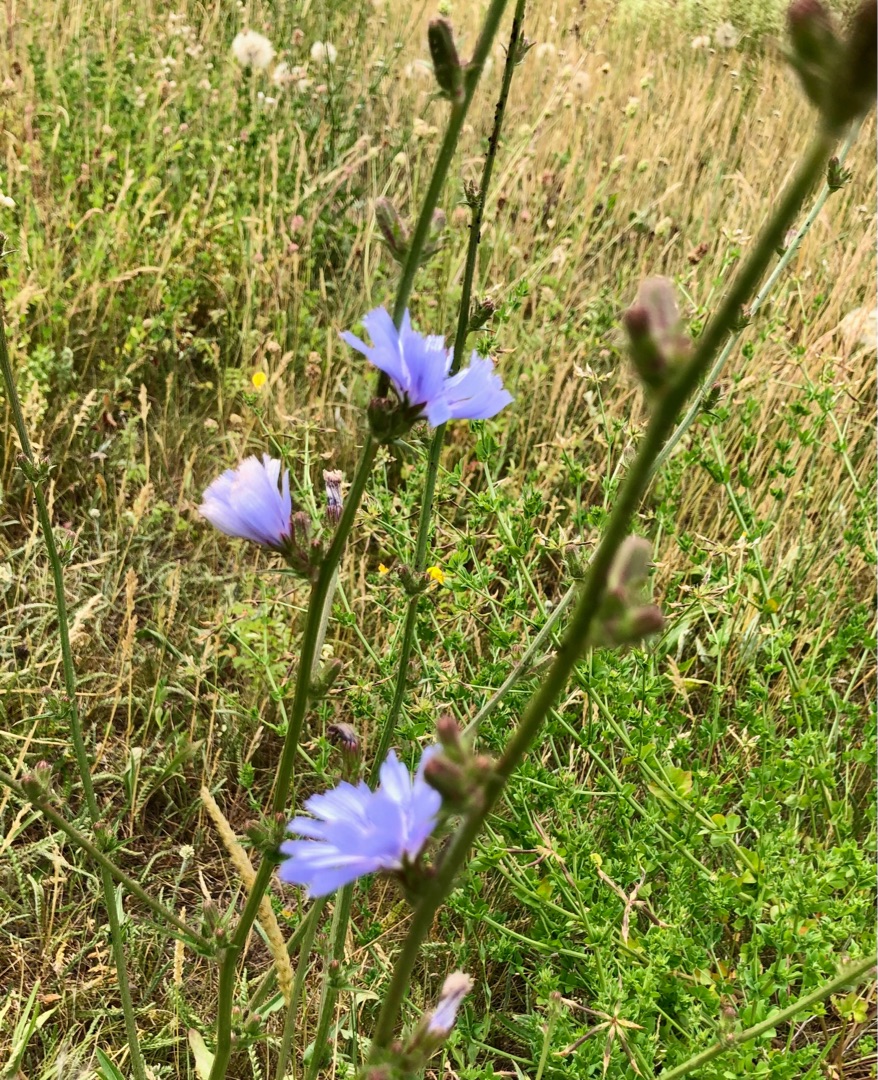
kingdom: Plantae
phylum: Tracheophyta
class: Magnoliopsida
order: Asterales
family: Asteraceae
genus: Cichorium
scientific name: Cichorium intybus
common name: Cikorie
